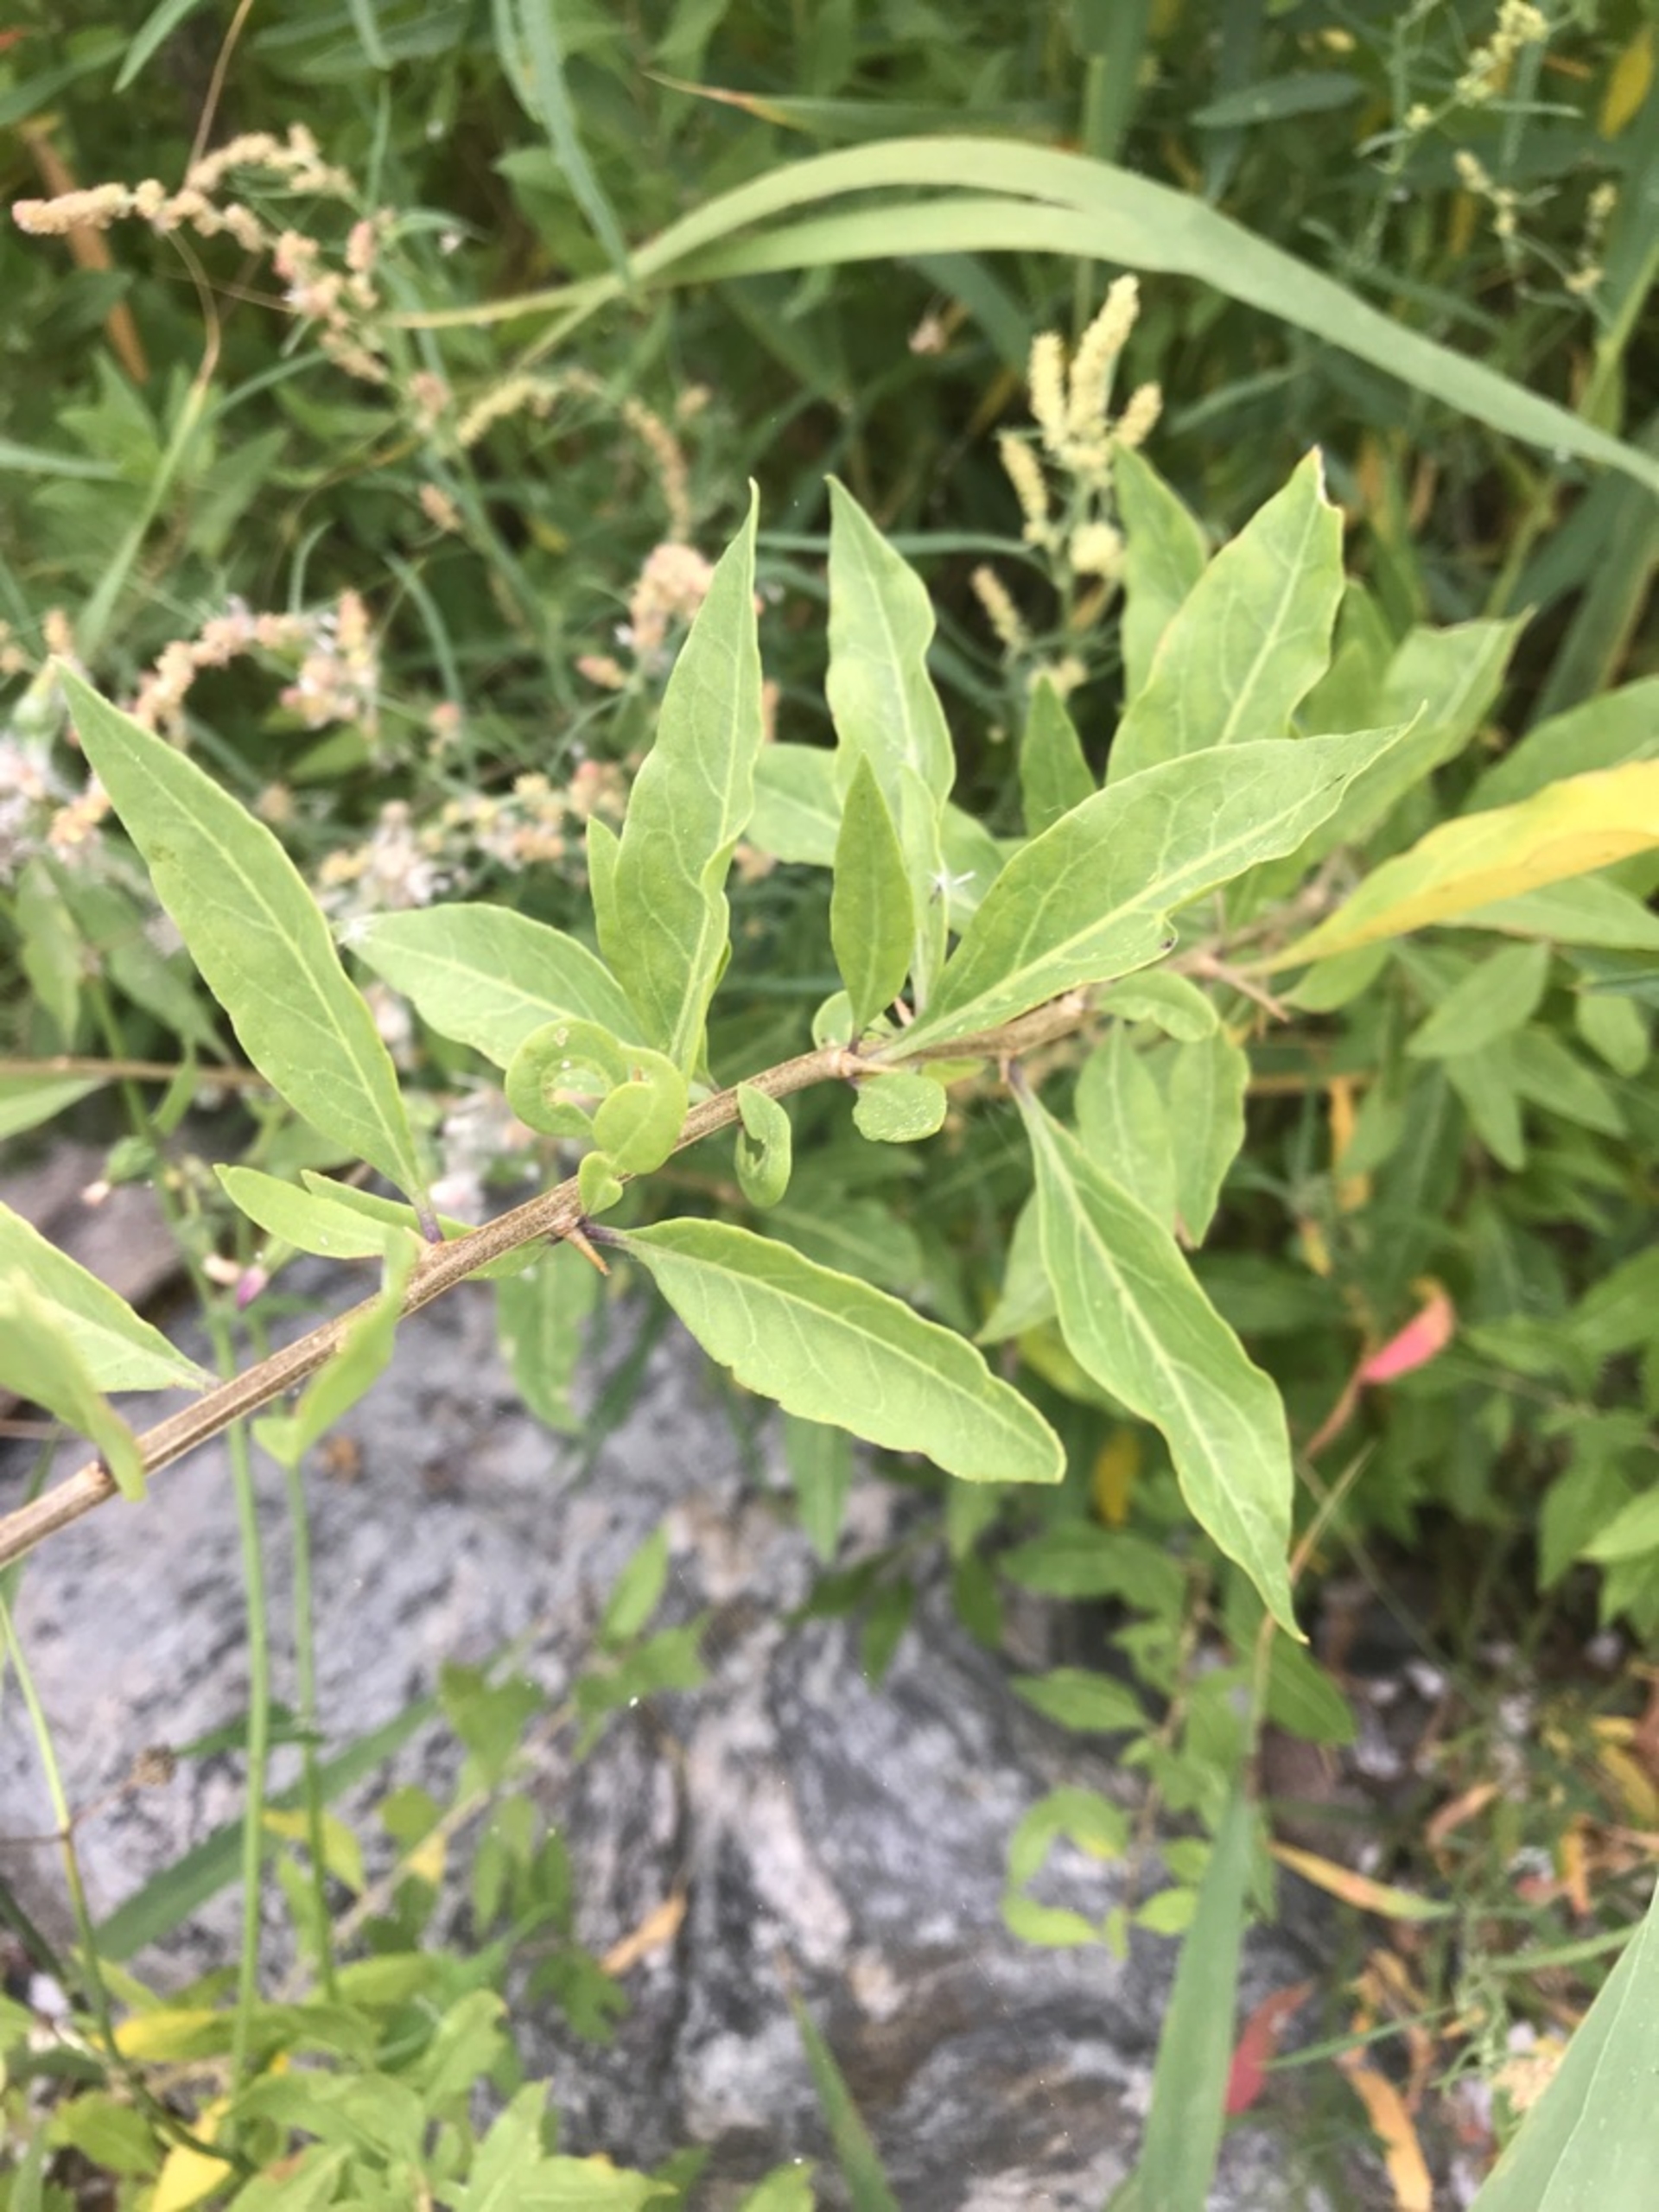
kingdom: Plantae
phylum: Tracheophyta
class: Magnoliopsida
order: Solanales
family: Solanaceae
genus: Lycium
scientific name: Lycium barbarum
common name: Bukketorn
